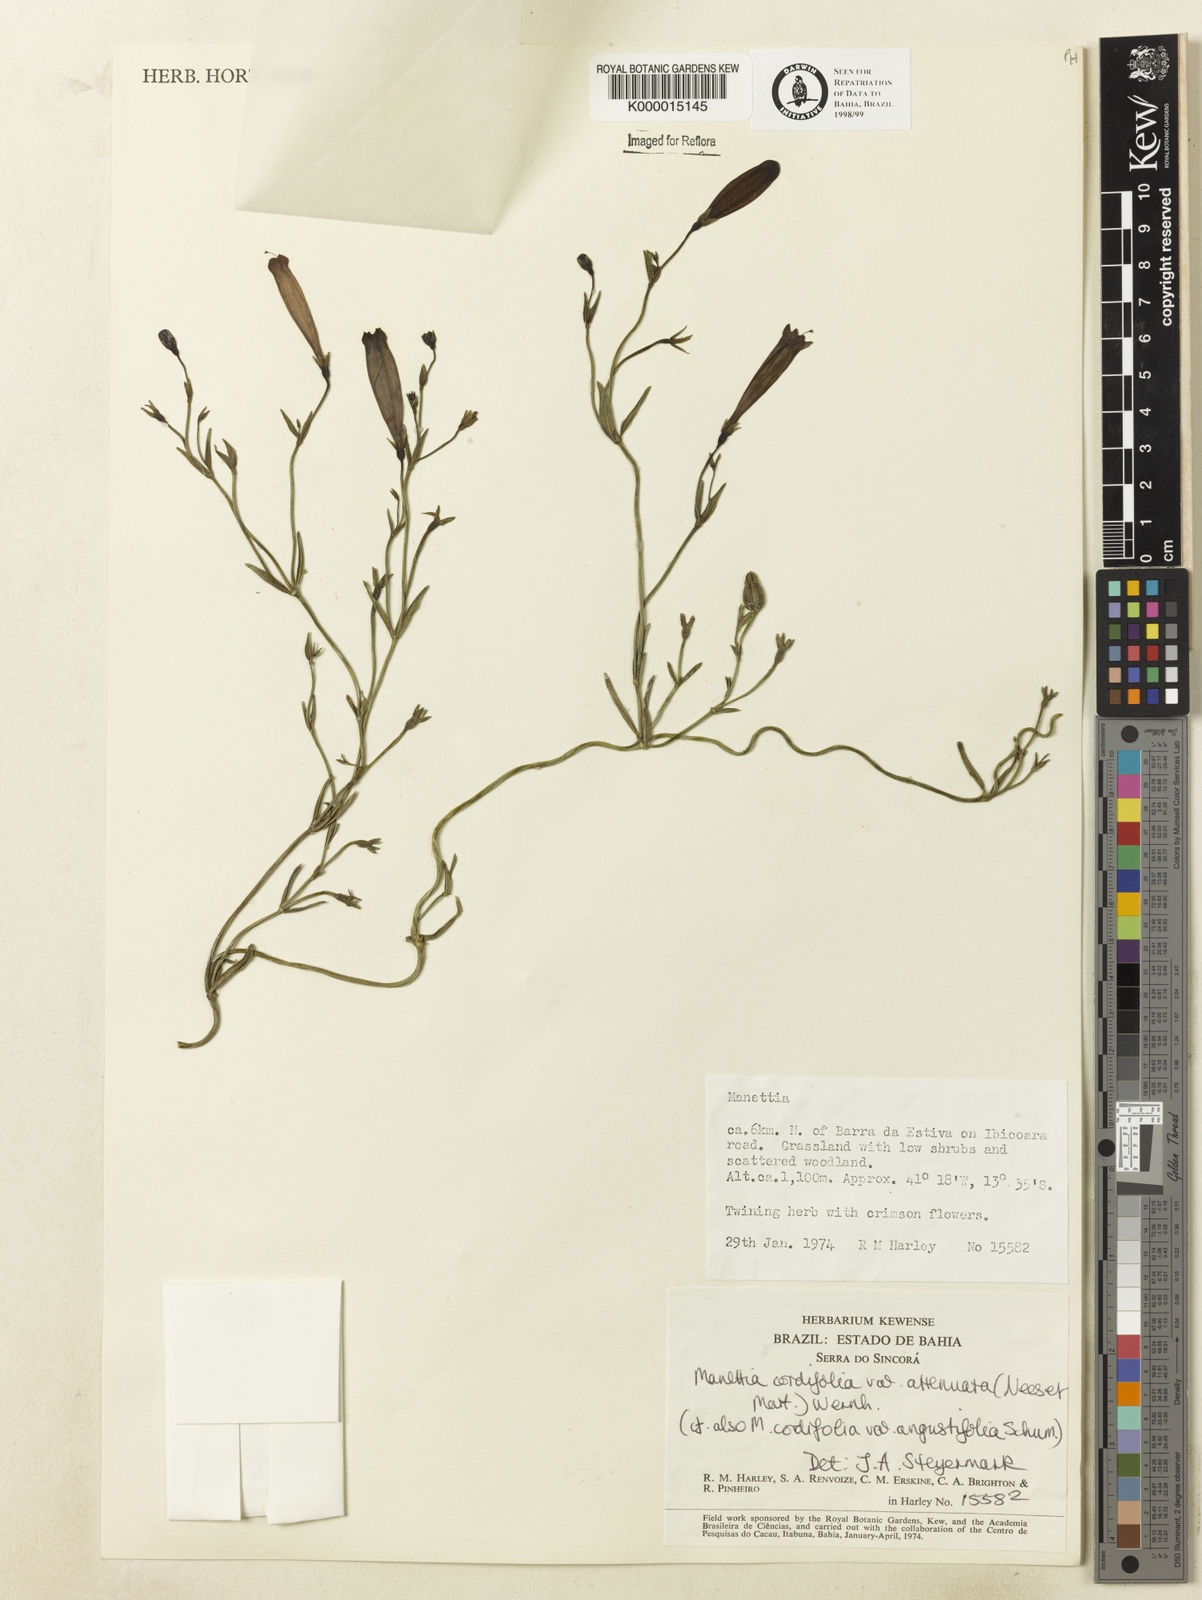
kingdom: Plantae
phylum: Tracheophyta
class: Magnoliopsida
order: Gentianales
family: Rubiaceae
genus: Manettia
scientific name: Manettia cordifolia
